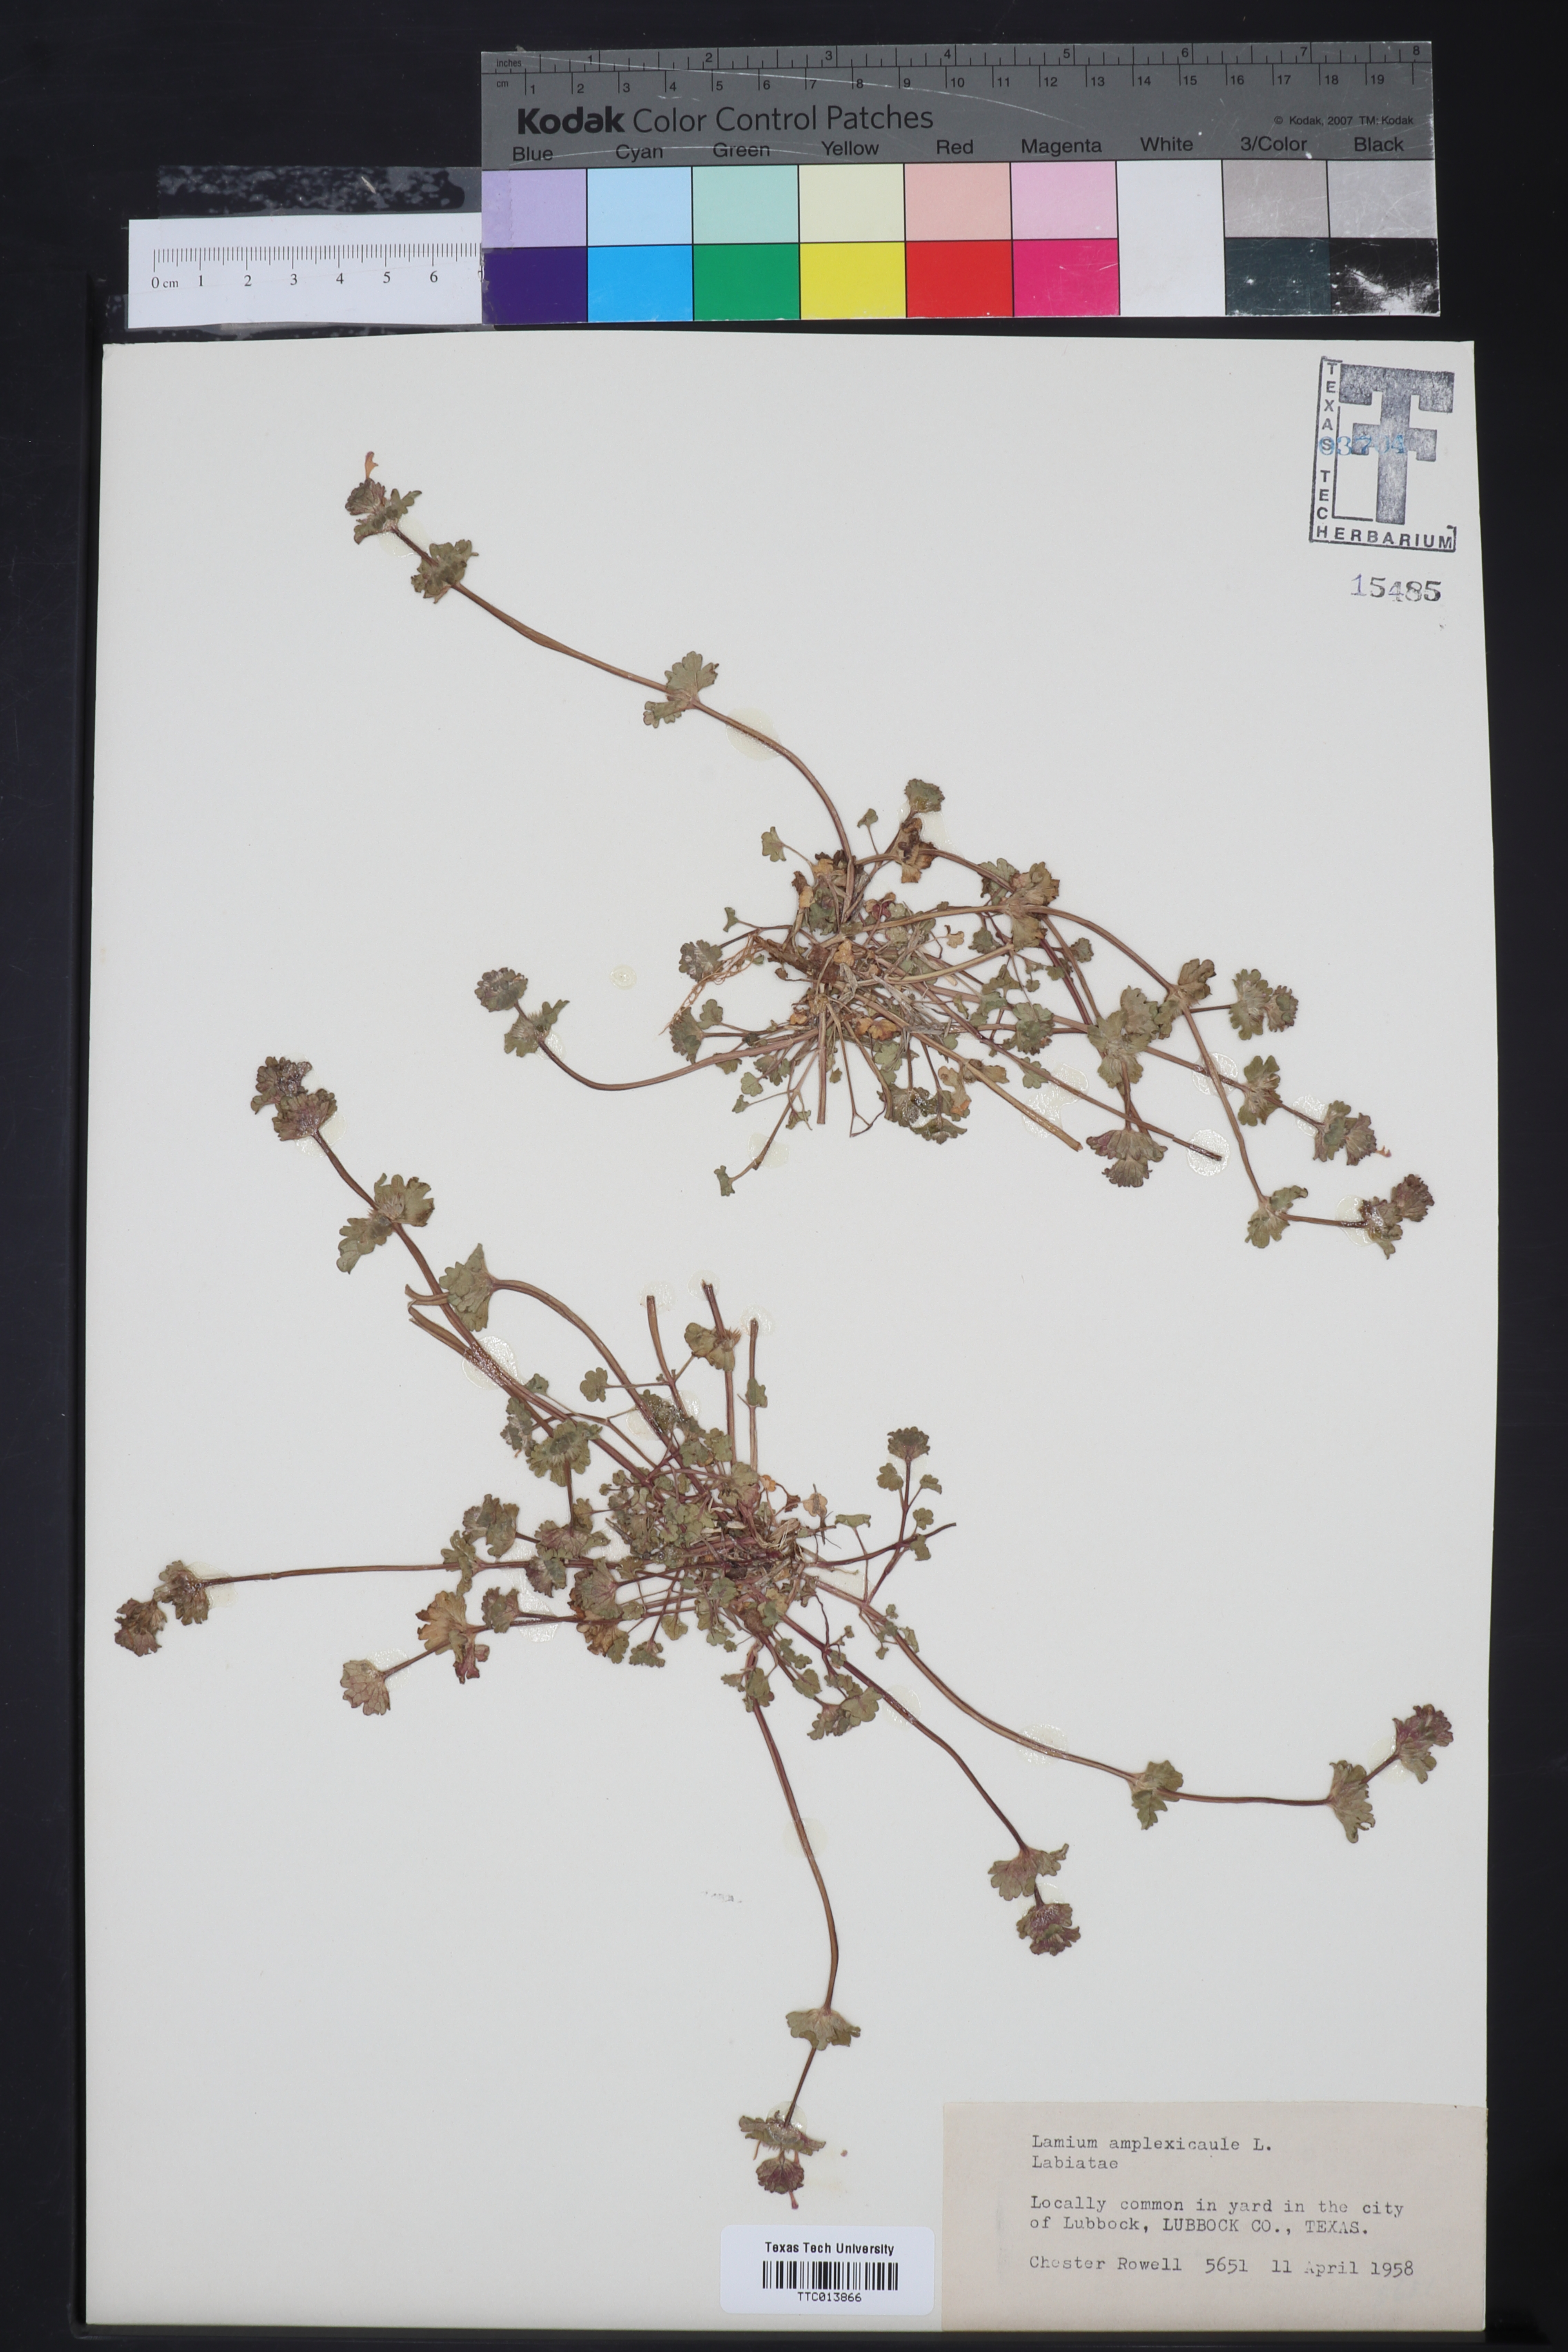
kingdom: Plantae
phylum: Tracheophyta
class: Magnoliopsida
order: Lamiales
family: Lamiaceae
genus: Lamium
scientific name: Lamium amplexicaule
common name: Henbit dead-nettle
